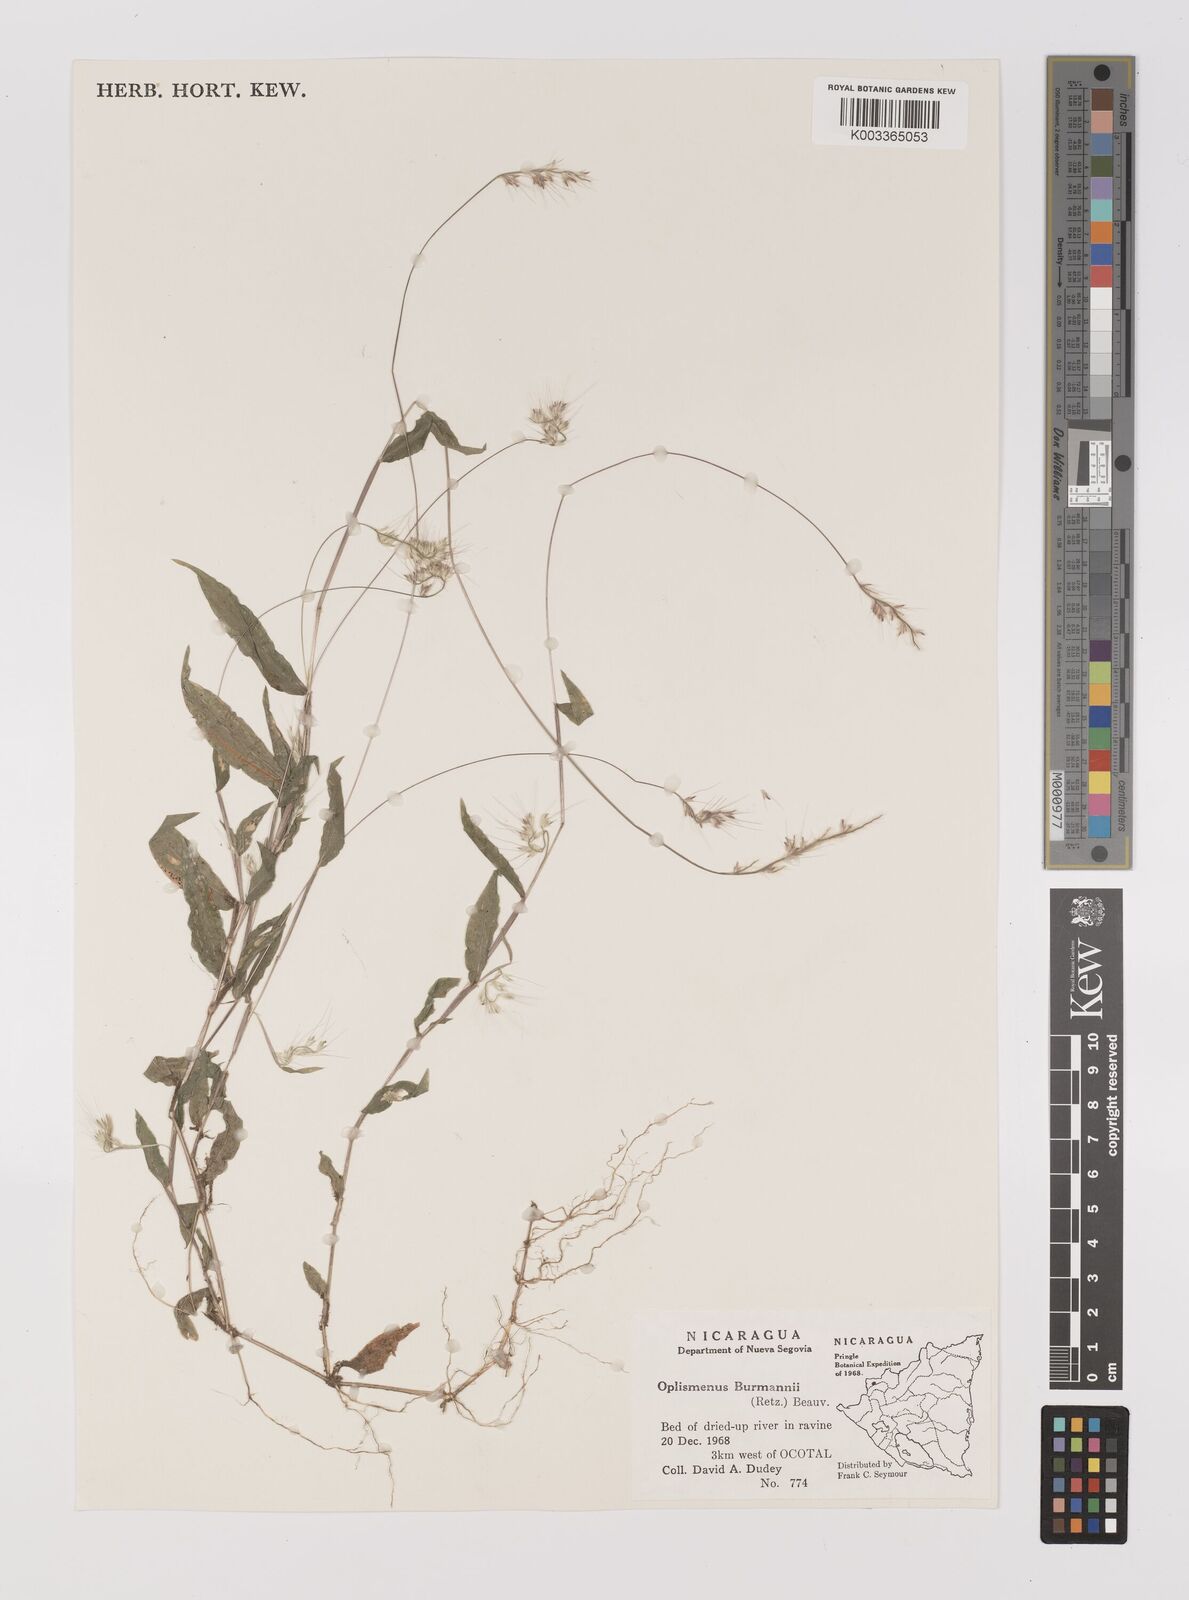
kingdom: Plantae
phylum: Tracheophyta
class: Liliopsida
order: Poales
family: Poaceae
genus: Oplismenus
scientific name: Oplismenus burmanni
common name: Burmann's basketgrass
